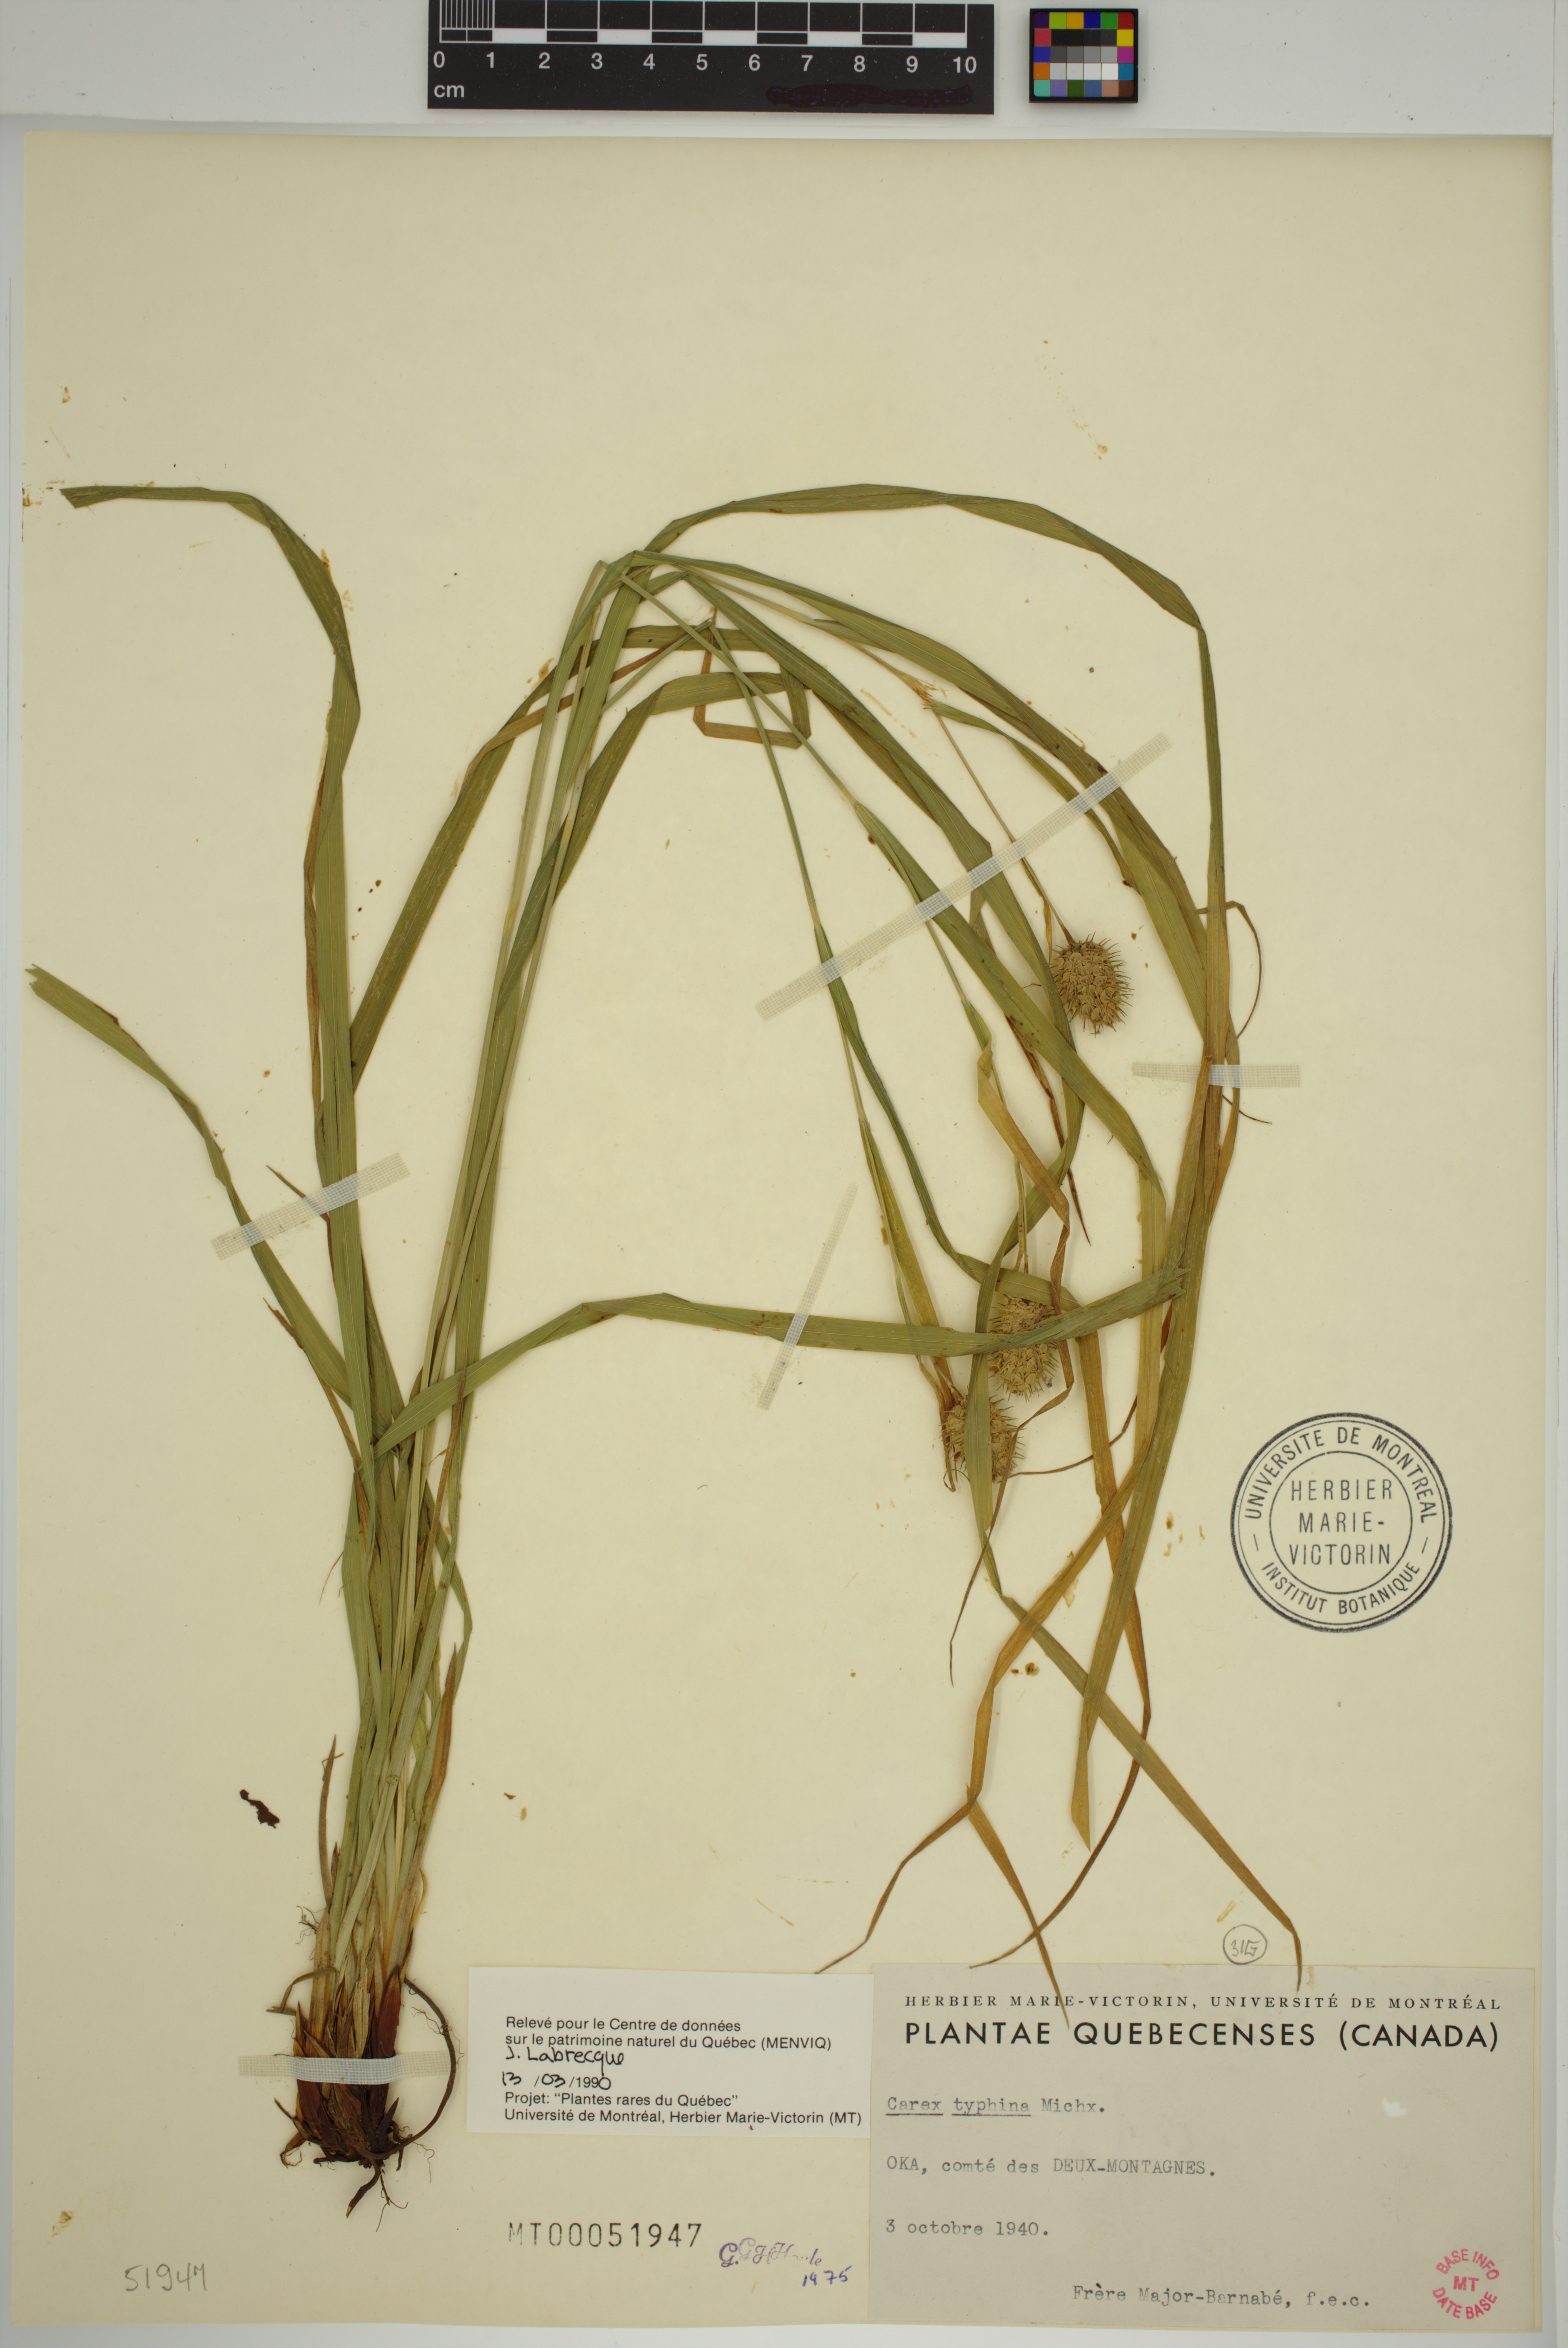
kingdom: Plantae
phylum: Tracheophyta
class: Liliopsida
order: Poales
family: Cyperaceae
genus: Carex
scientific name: Carex typhina
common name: Cattail sedge
